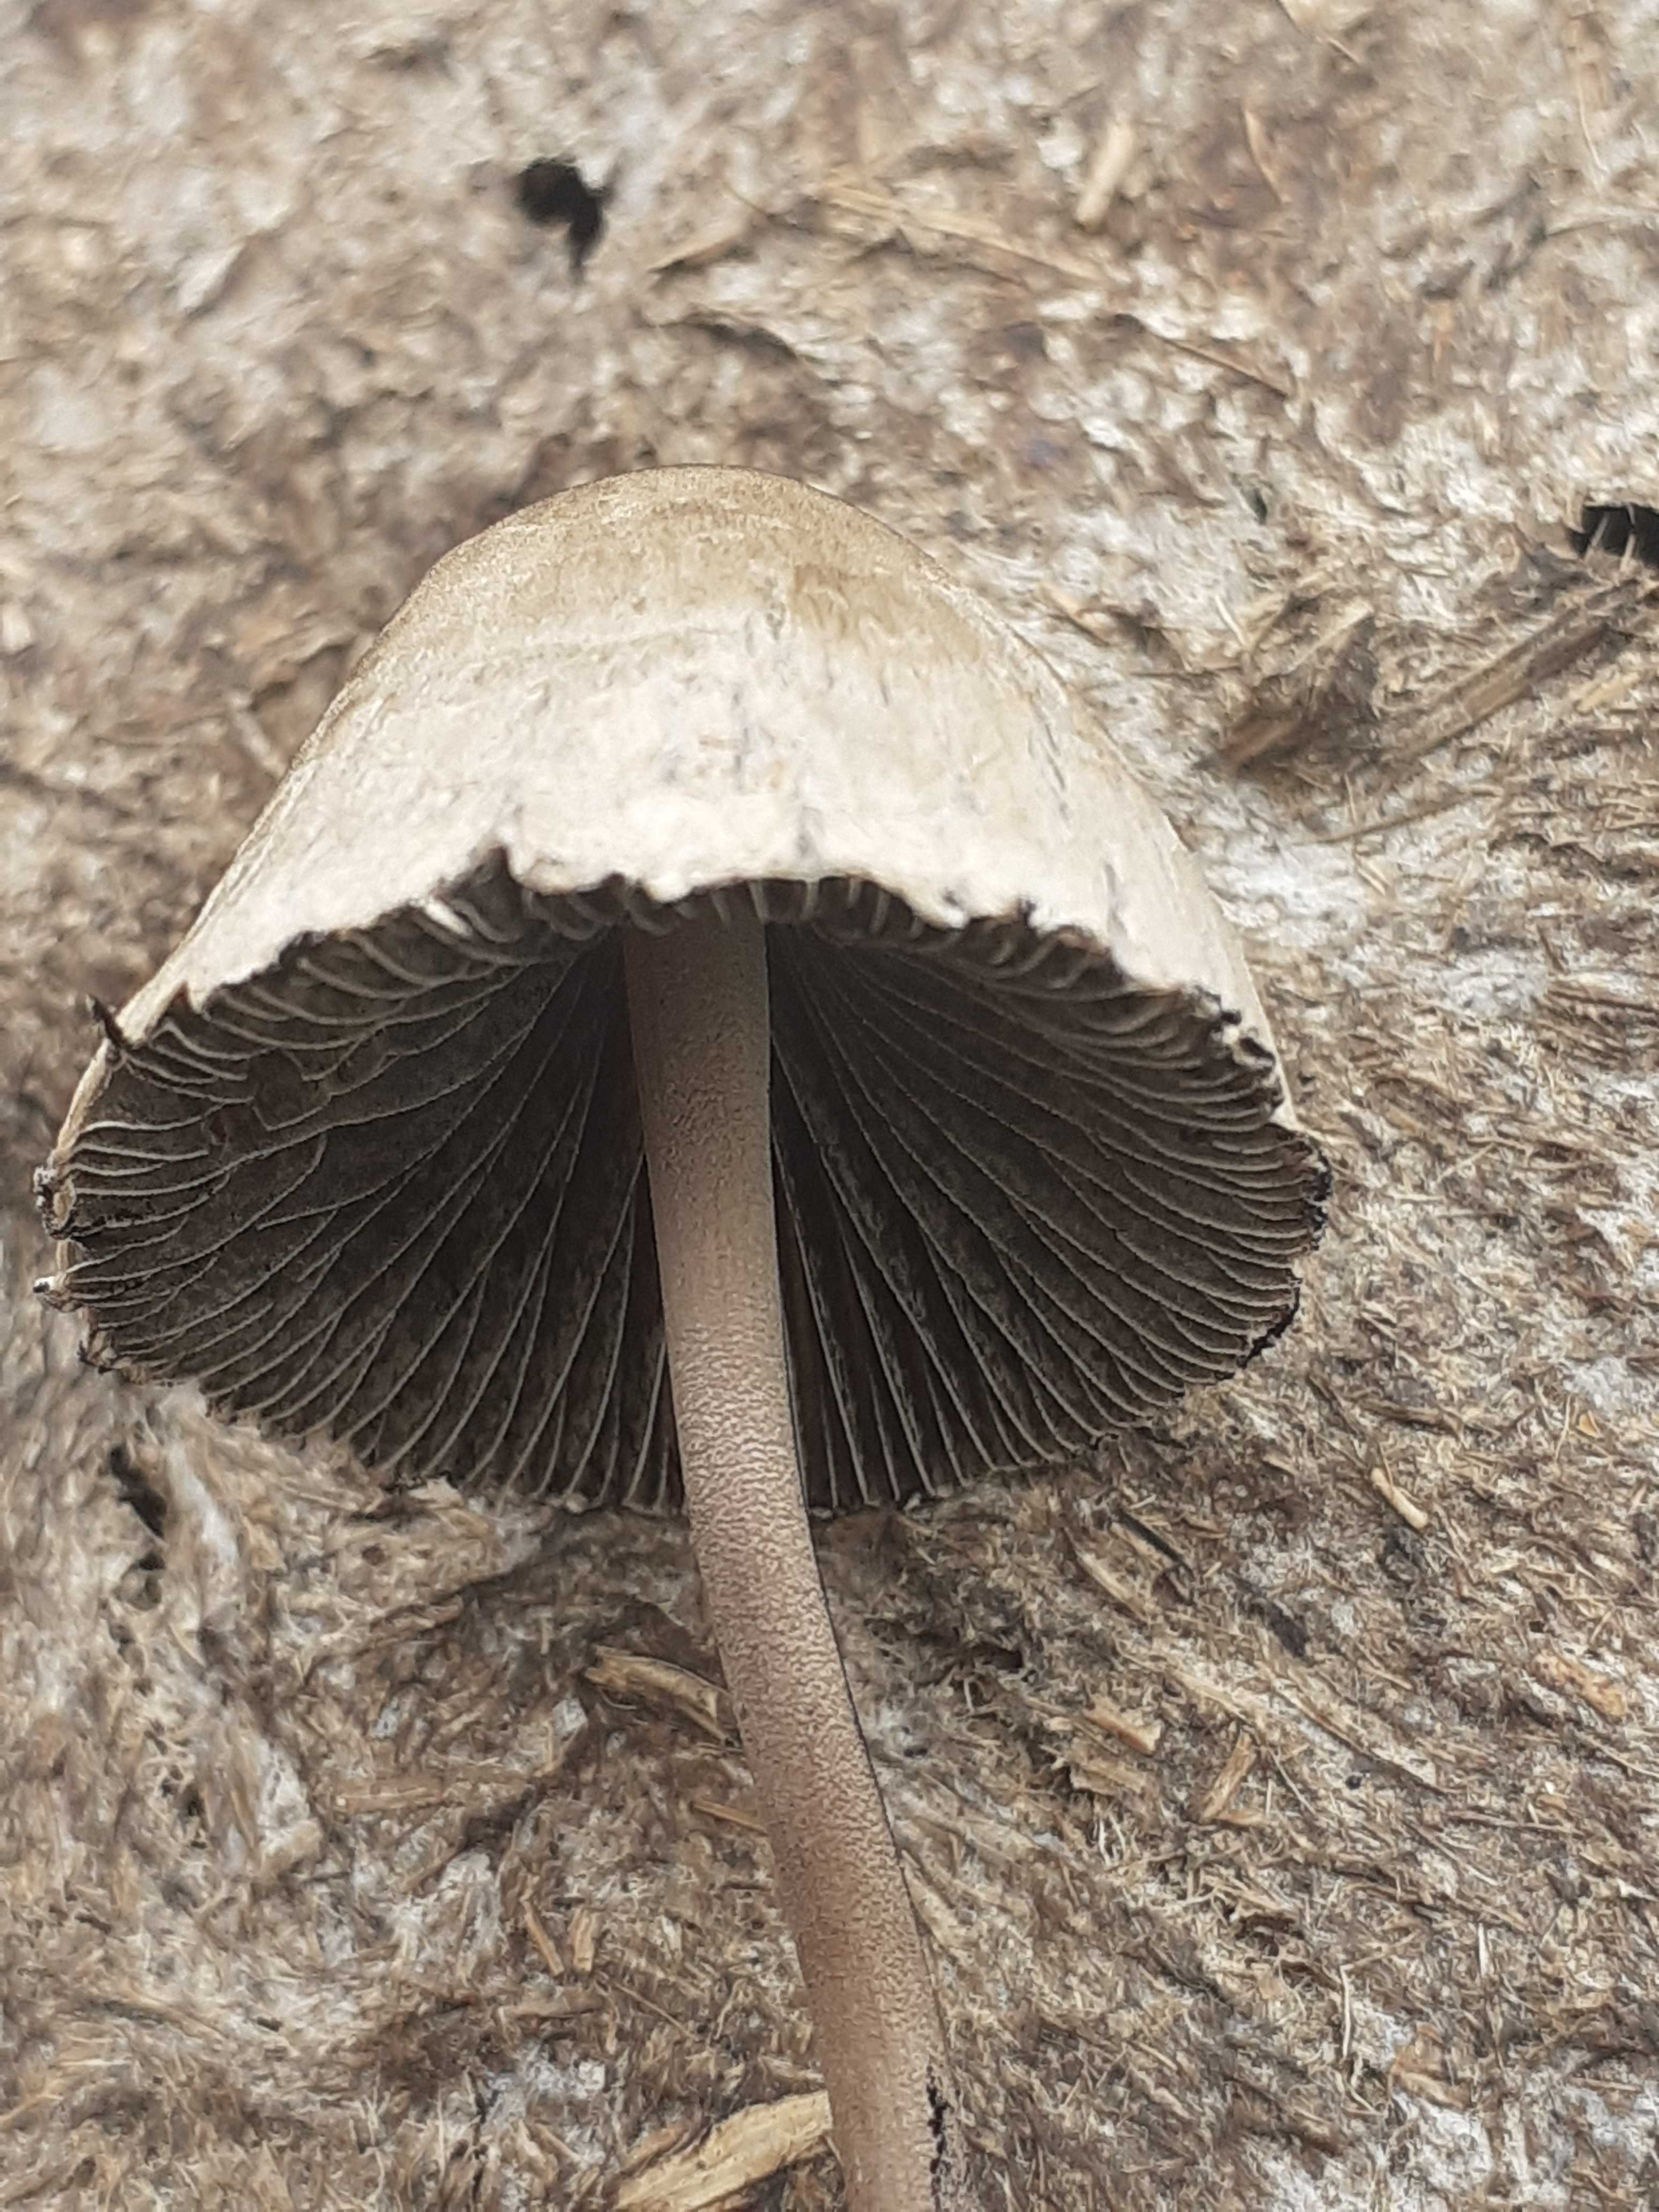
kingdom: Fungi
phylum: Basidiomycota
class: Agaricomycetes
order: Agaricales
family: Bolbitiaceae
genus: Panaeolus
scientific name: Panaeolus papilionaceus
